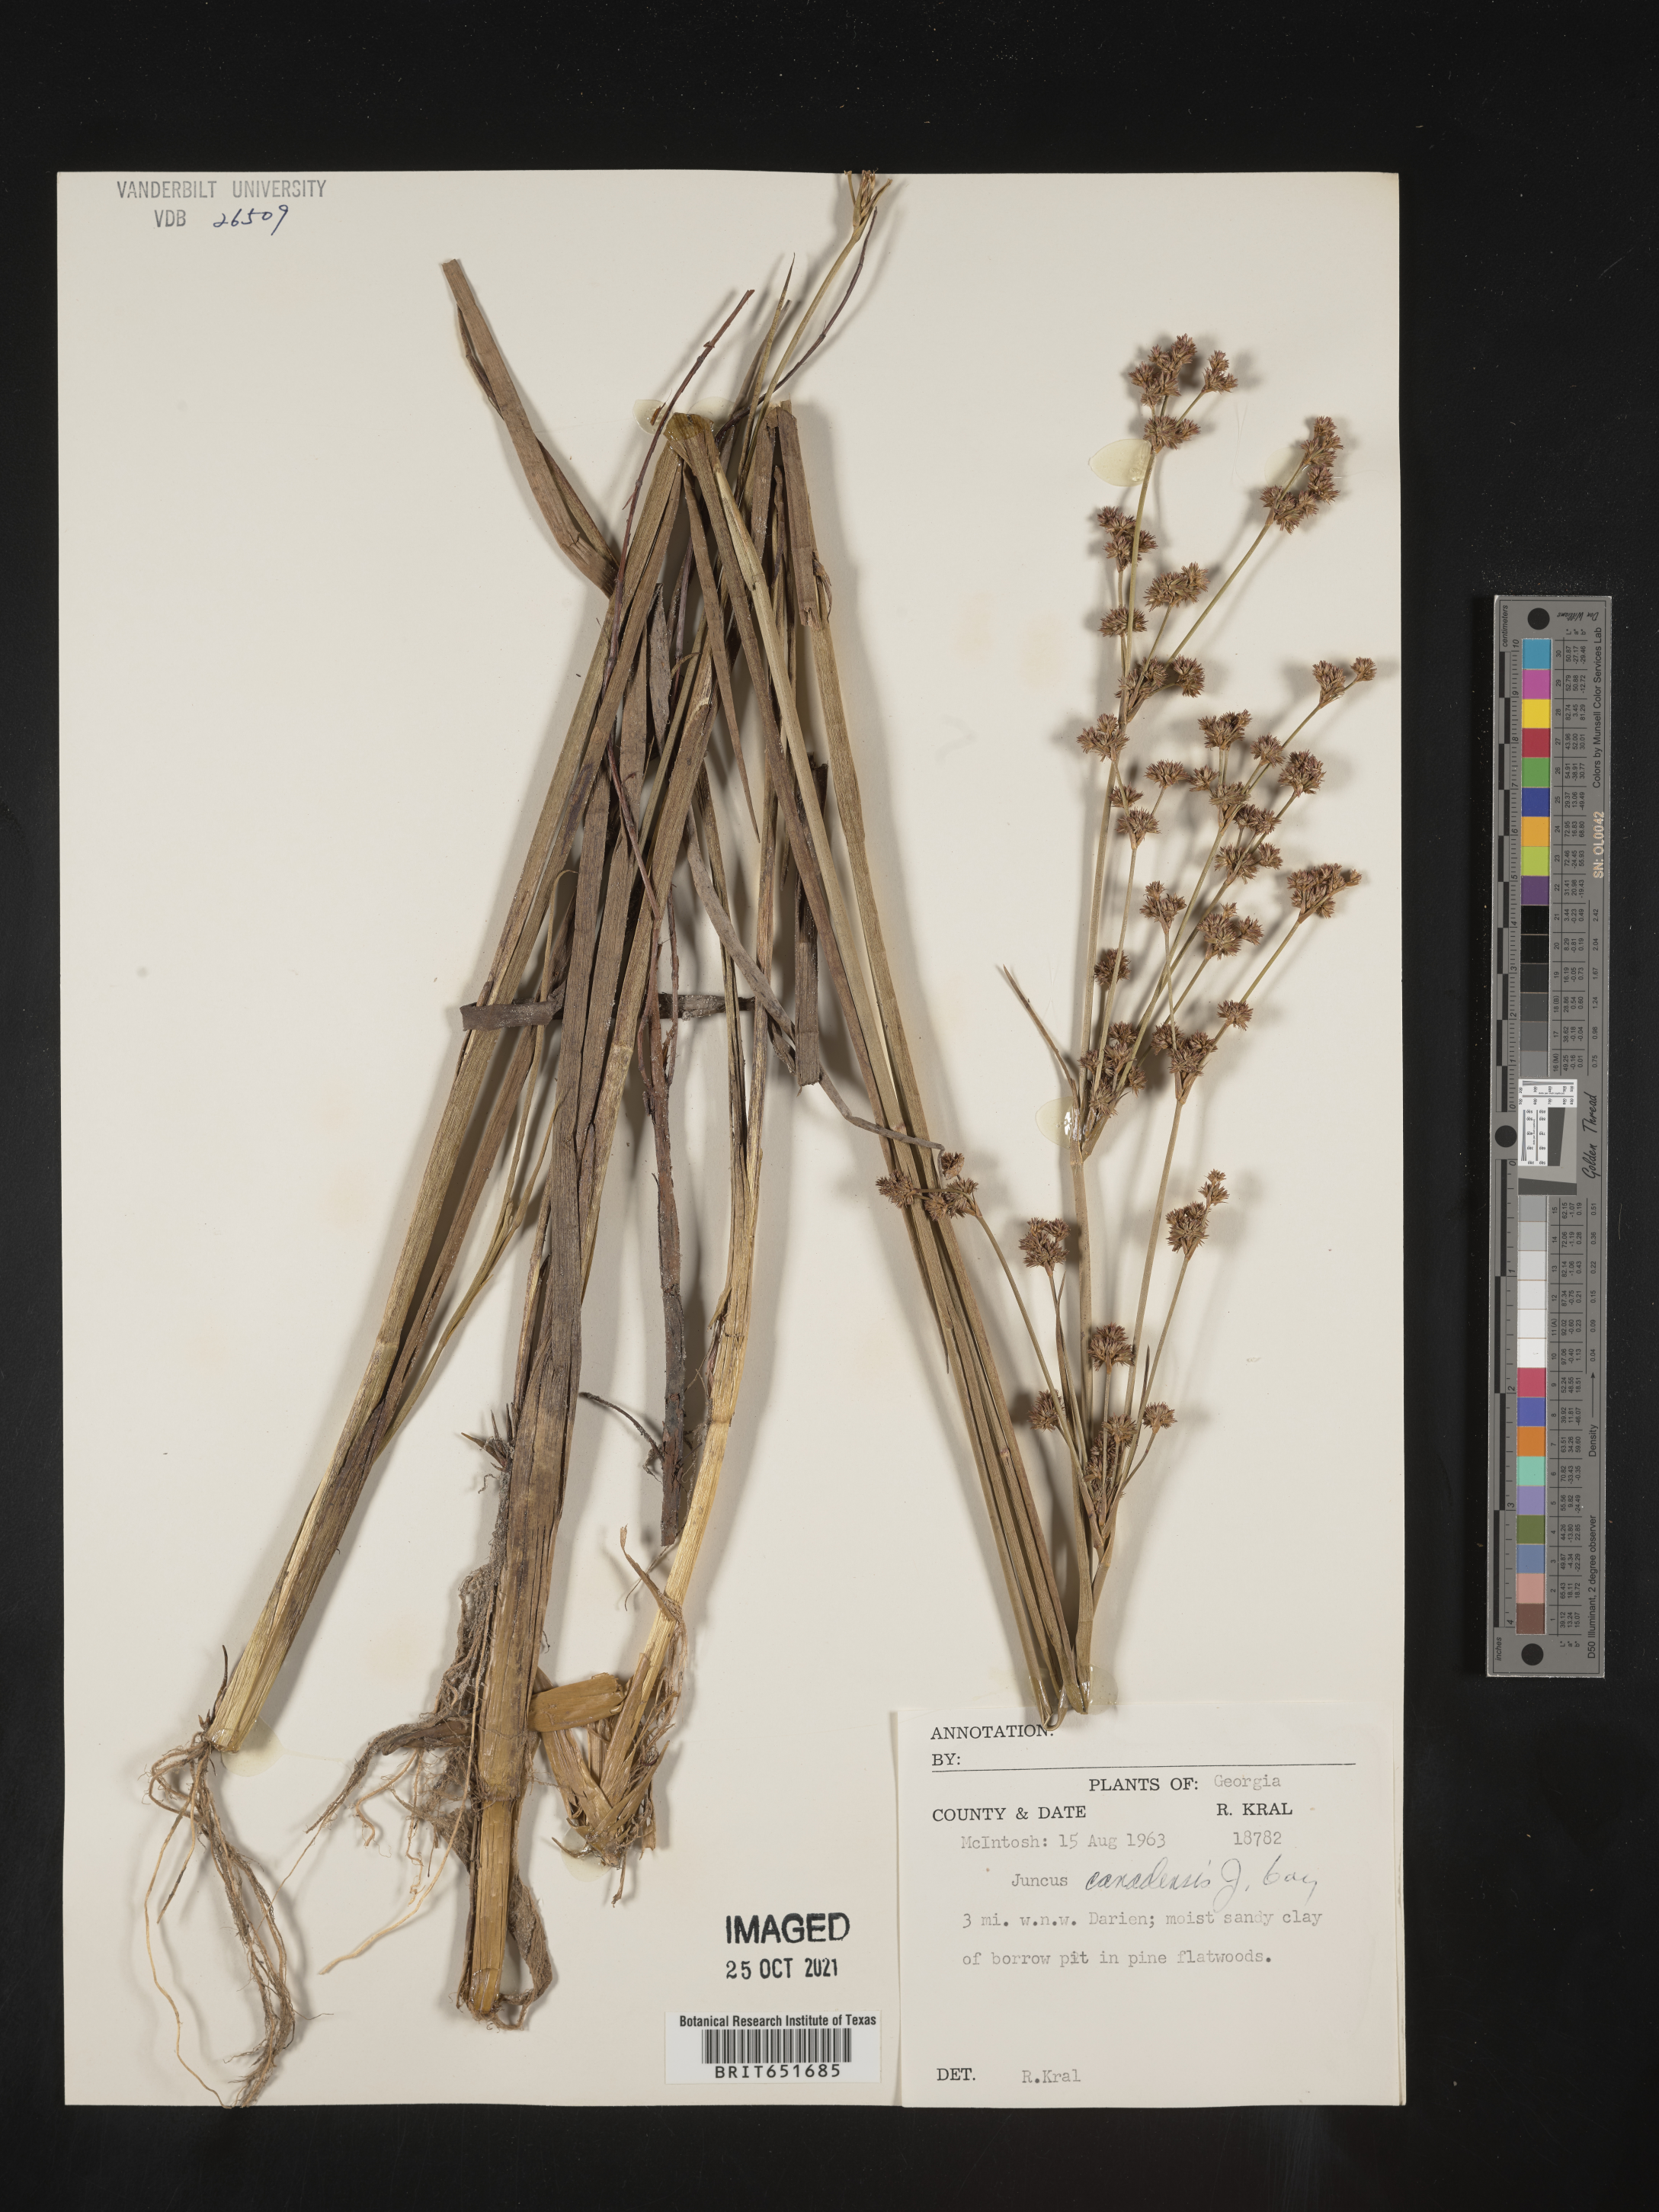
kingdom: Plantae
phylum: Tracheophyta
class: Liliopsida
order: Poales
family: Juncaceae
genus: Juncus
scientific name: Juncus canadensis
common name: Canada rush
